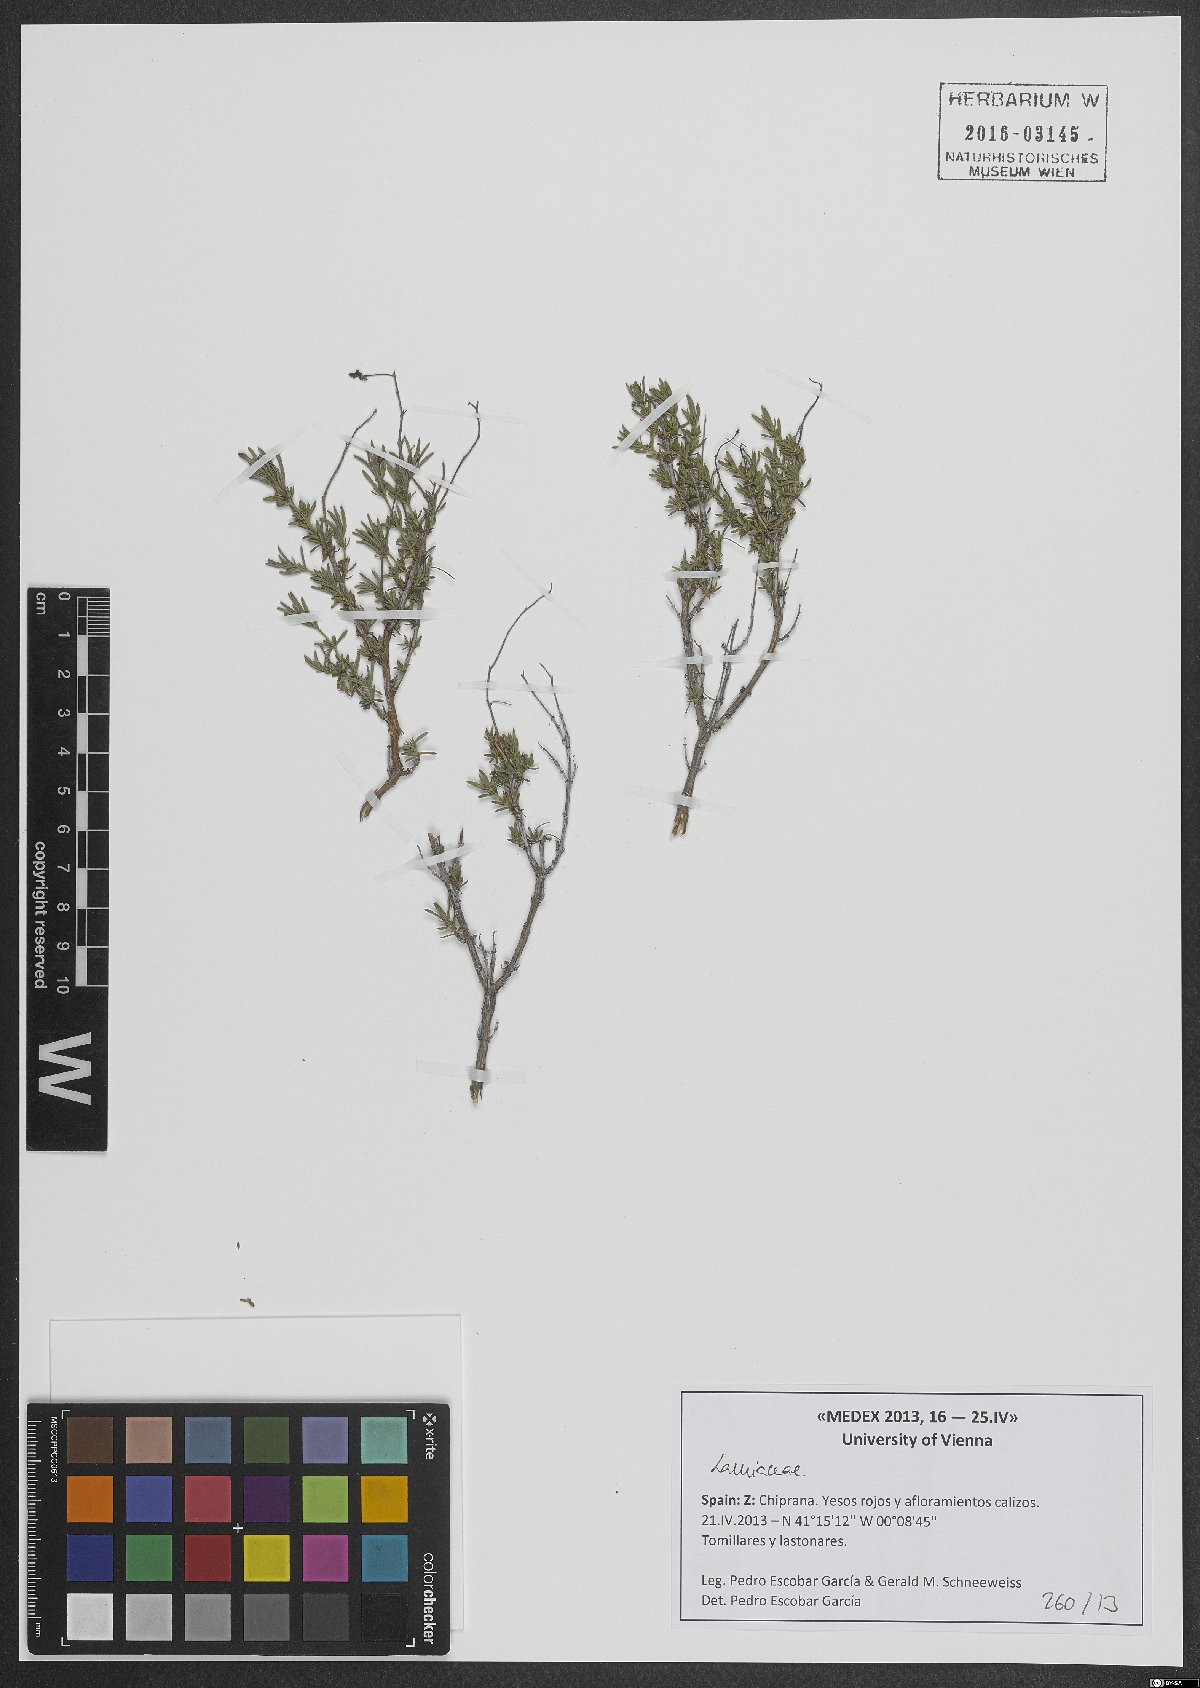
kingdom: Plantae
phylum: Tracheophyta
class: Magnoliopsida
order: Lamiales
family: Lamiaceae
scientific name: Lamiaceae
